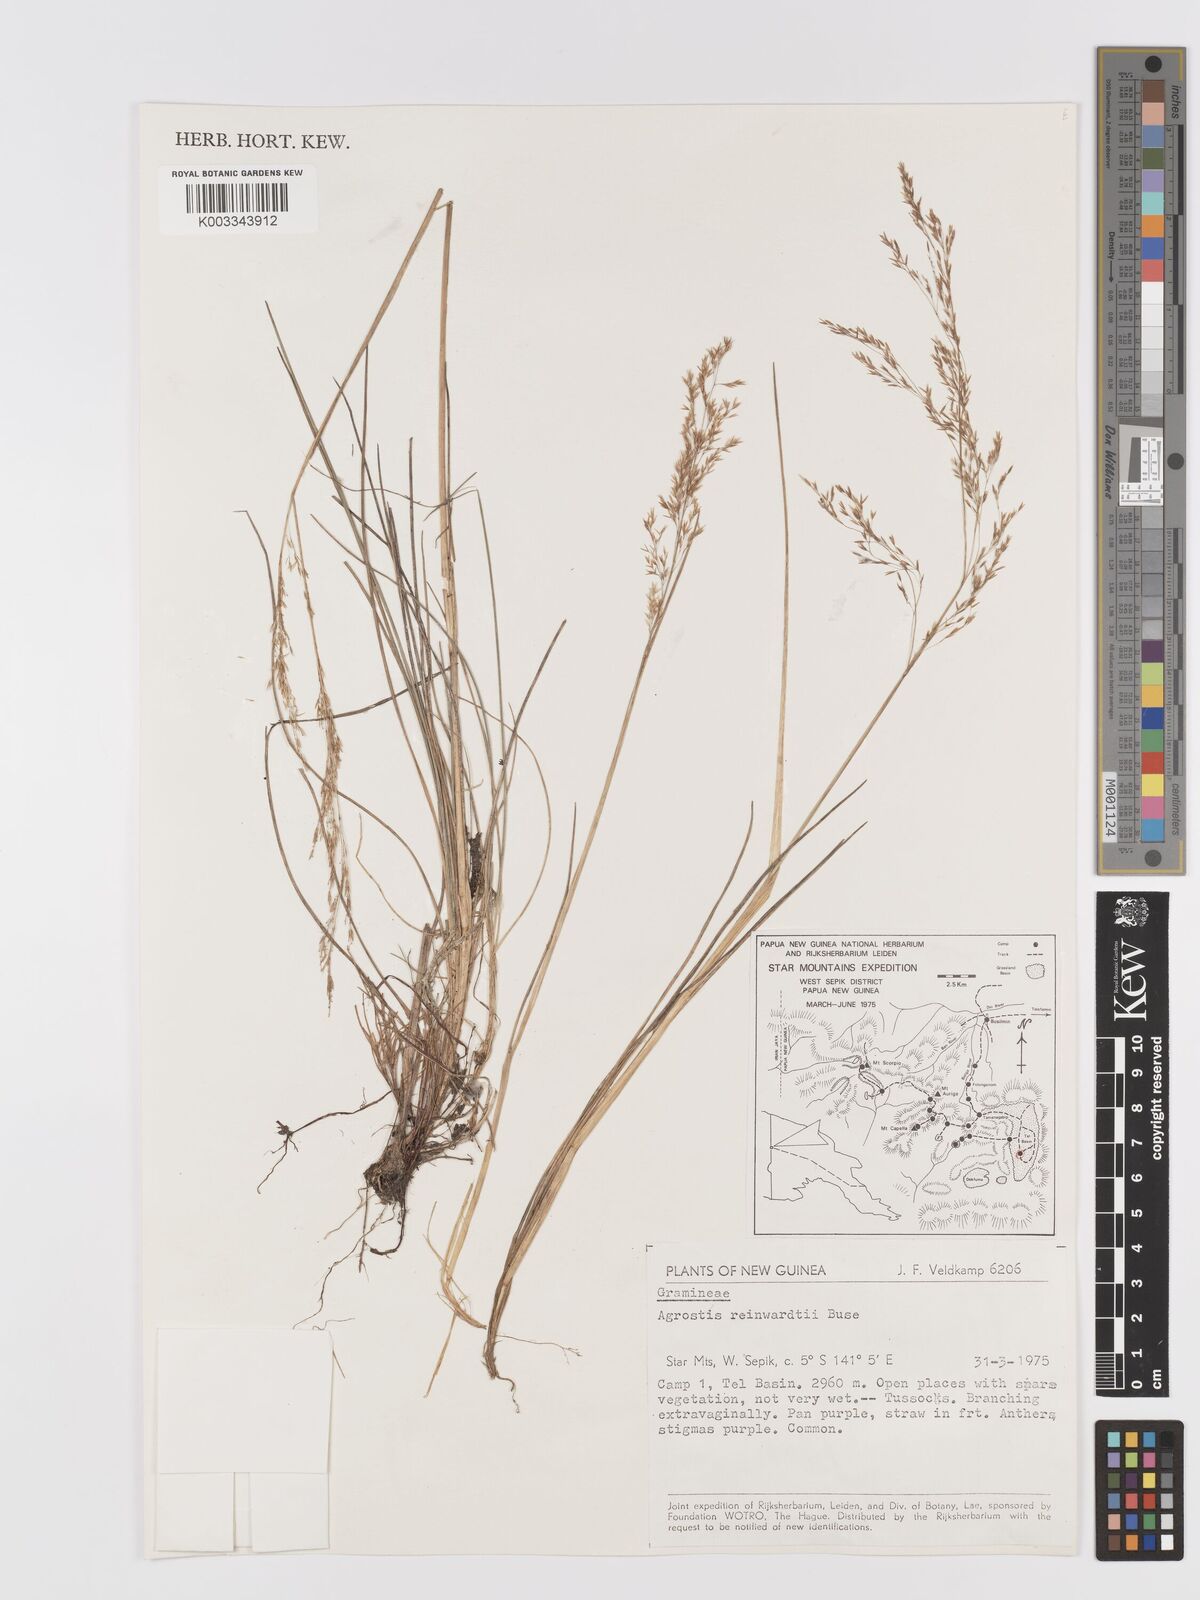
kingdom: Plantae
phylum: Tracheophyta
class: Liliopsida
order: Poales
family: Poaceae
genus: Agrostis
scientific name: Agrostis infirma
